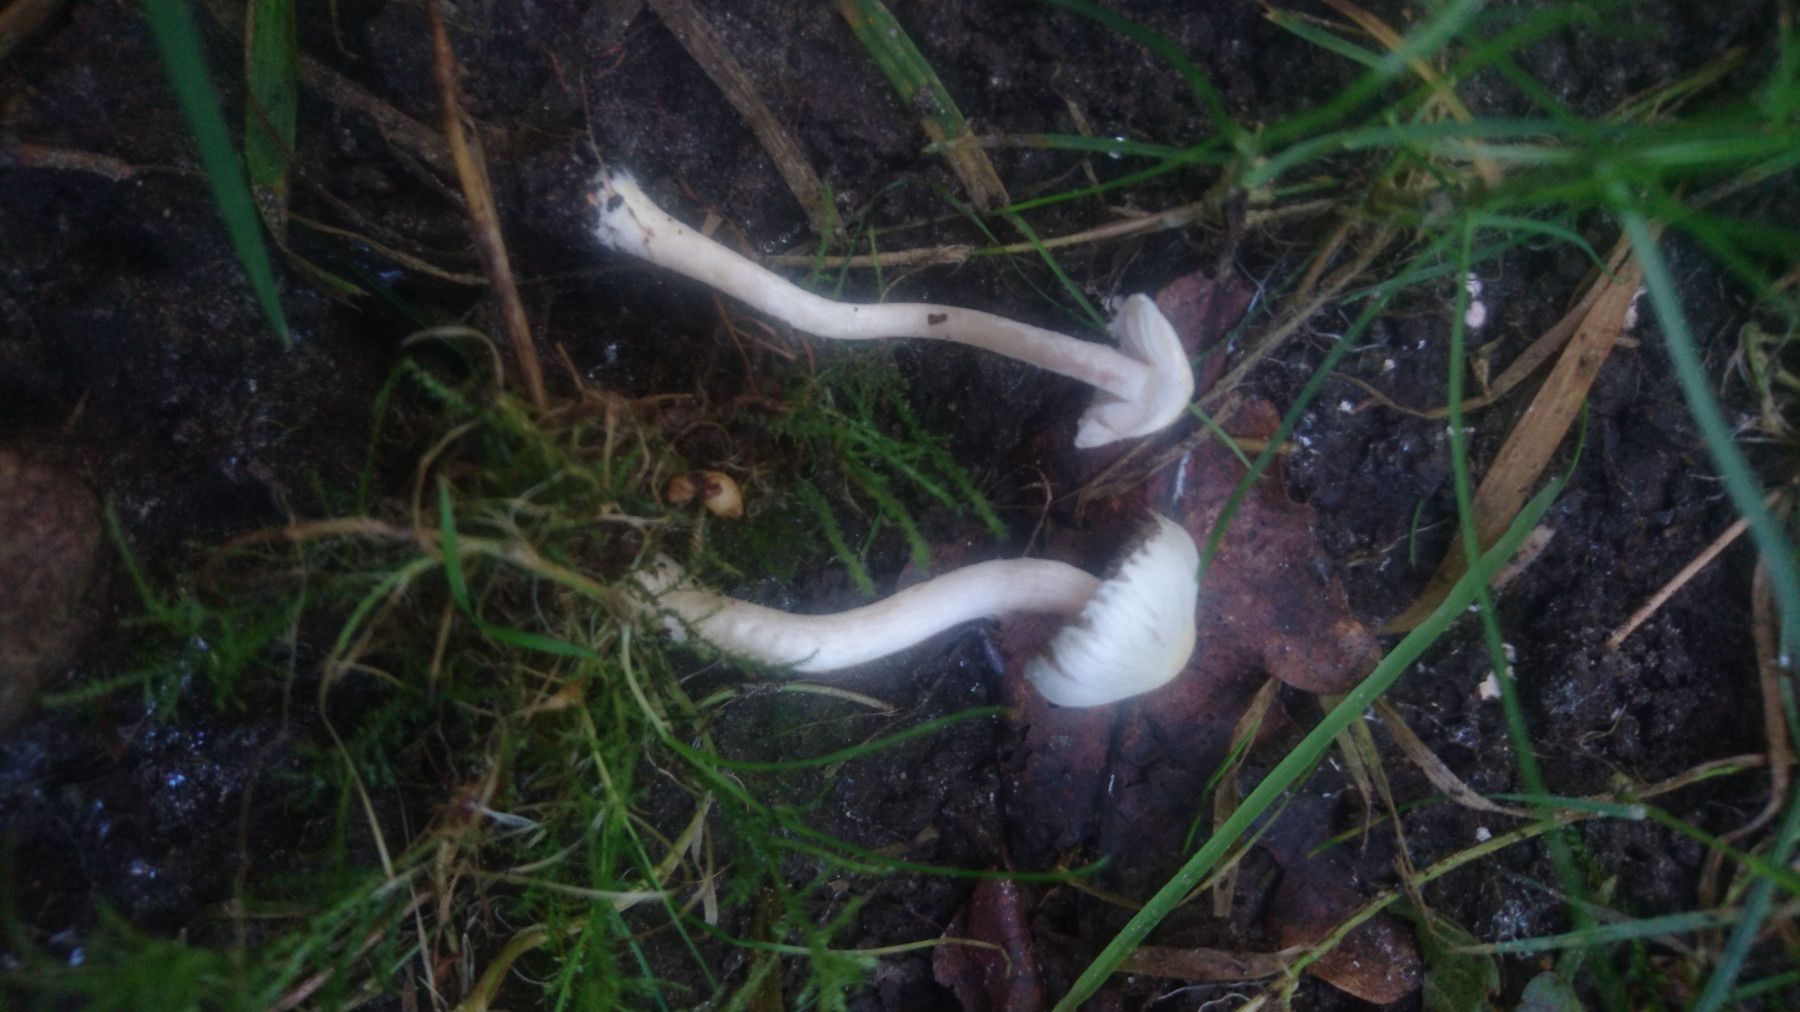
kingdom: Fungi
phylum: Basidiomycota
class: Agaricomycetes
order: Agaricales
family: Inocybaceae
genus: Inocybe
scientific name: Inocybe
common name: almindelig trævlhat
